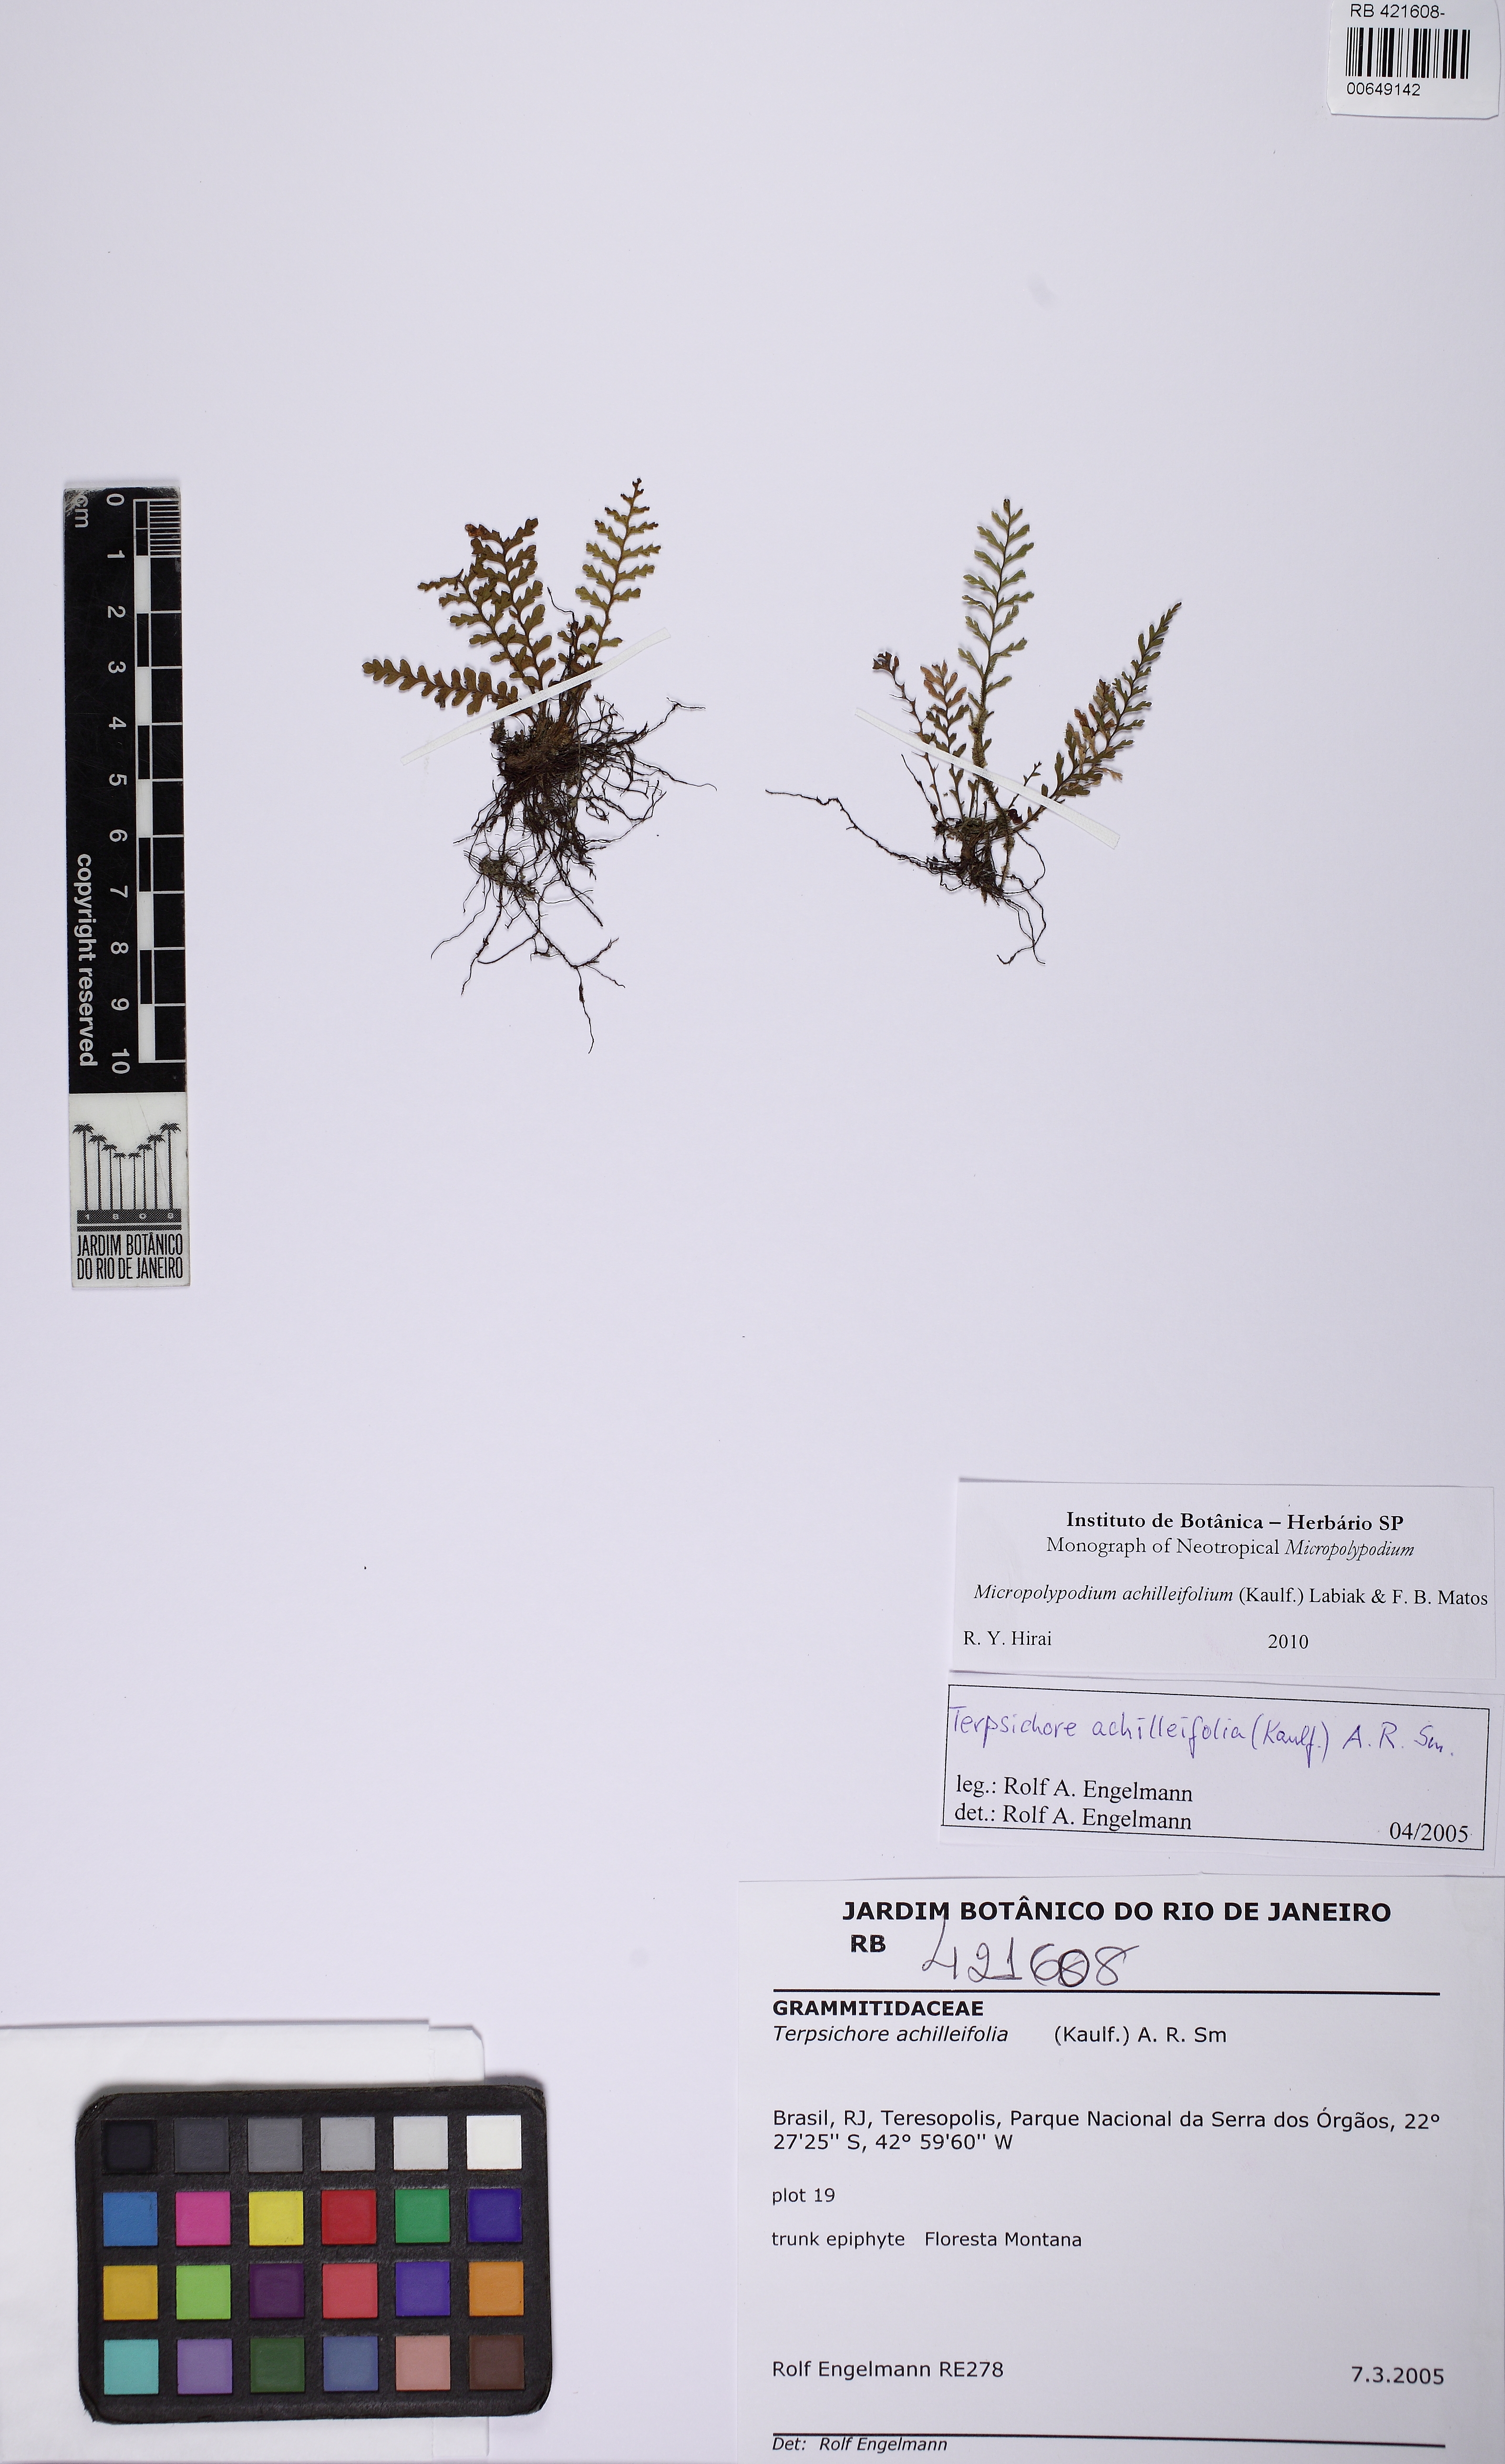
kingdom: Plantae
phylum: Tracheophyta
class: Polypodiopsida
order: Polypodiales
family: Polypodiaceae
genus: Moranopteris
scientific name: Moranopteris achilleifolia
